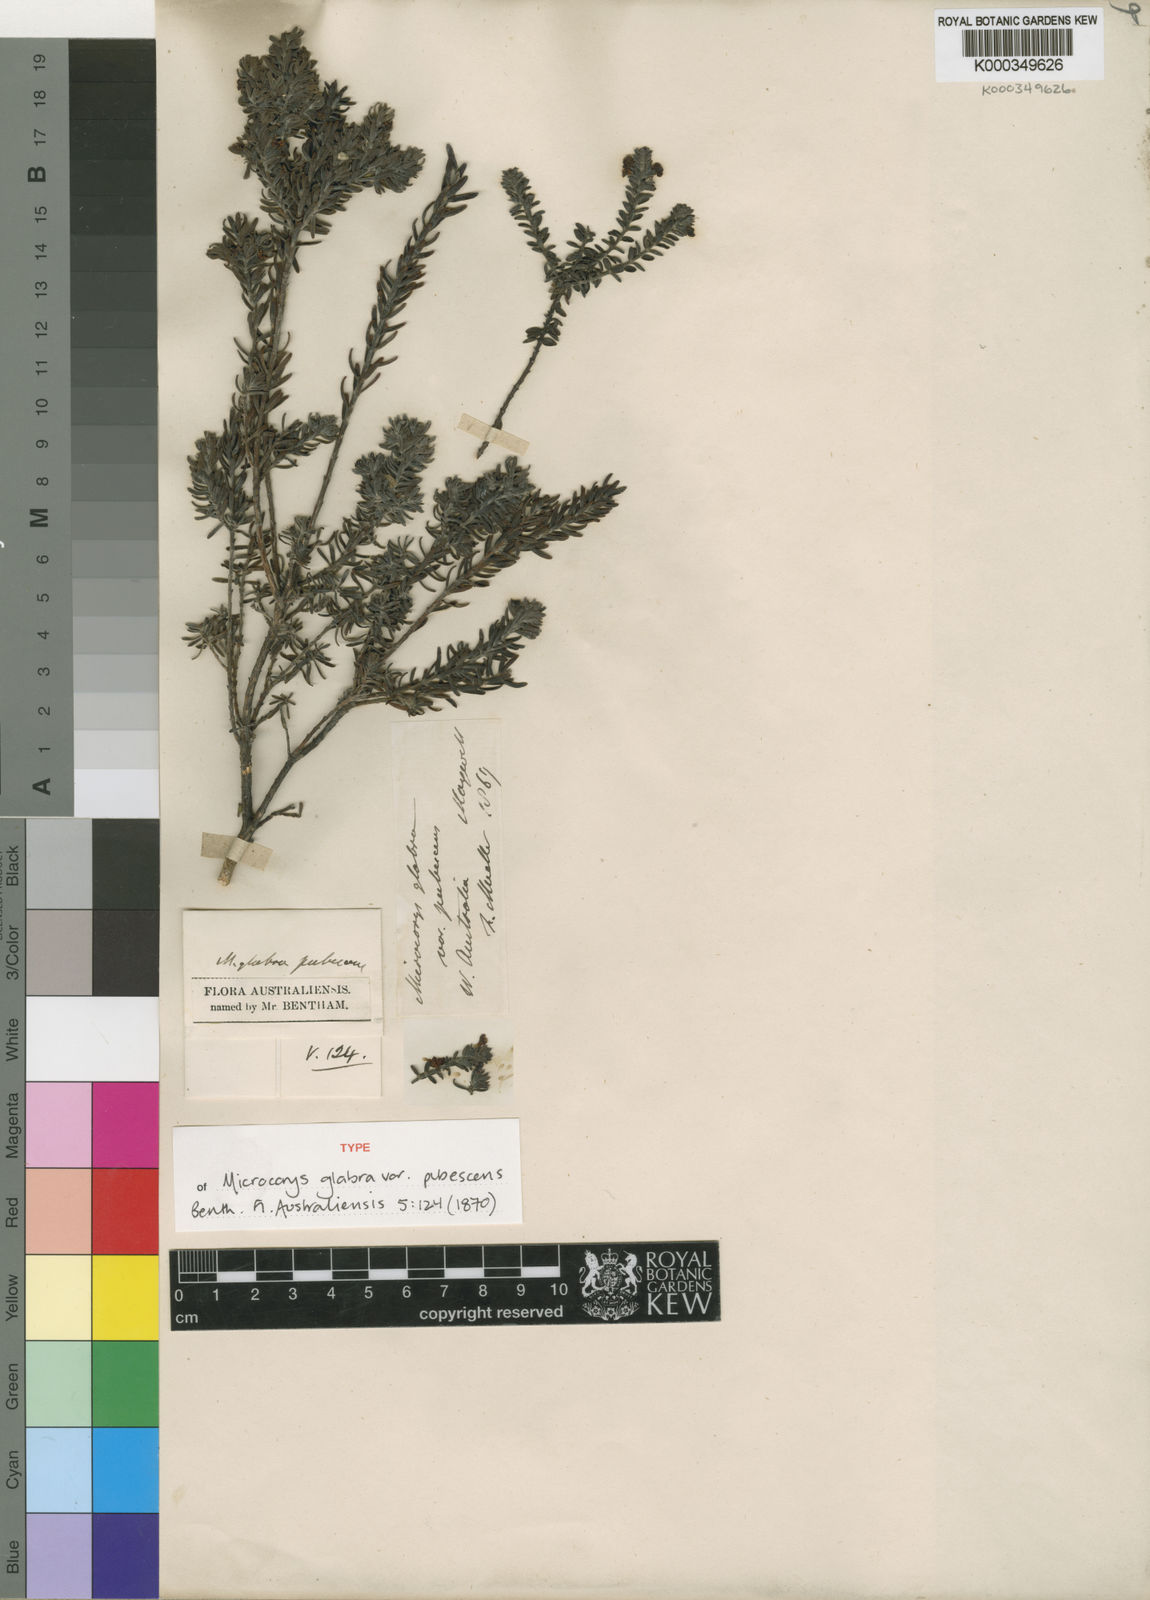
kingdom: Plantae
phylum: Tracheophyta
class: Magnoliopsida
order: Lamiales
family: Lamiaceae
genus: Microcorys
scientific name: Microcorys glabra
